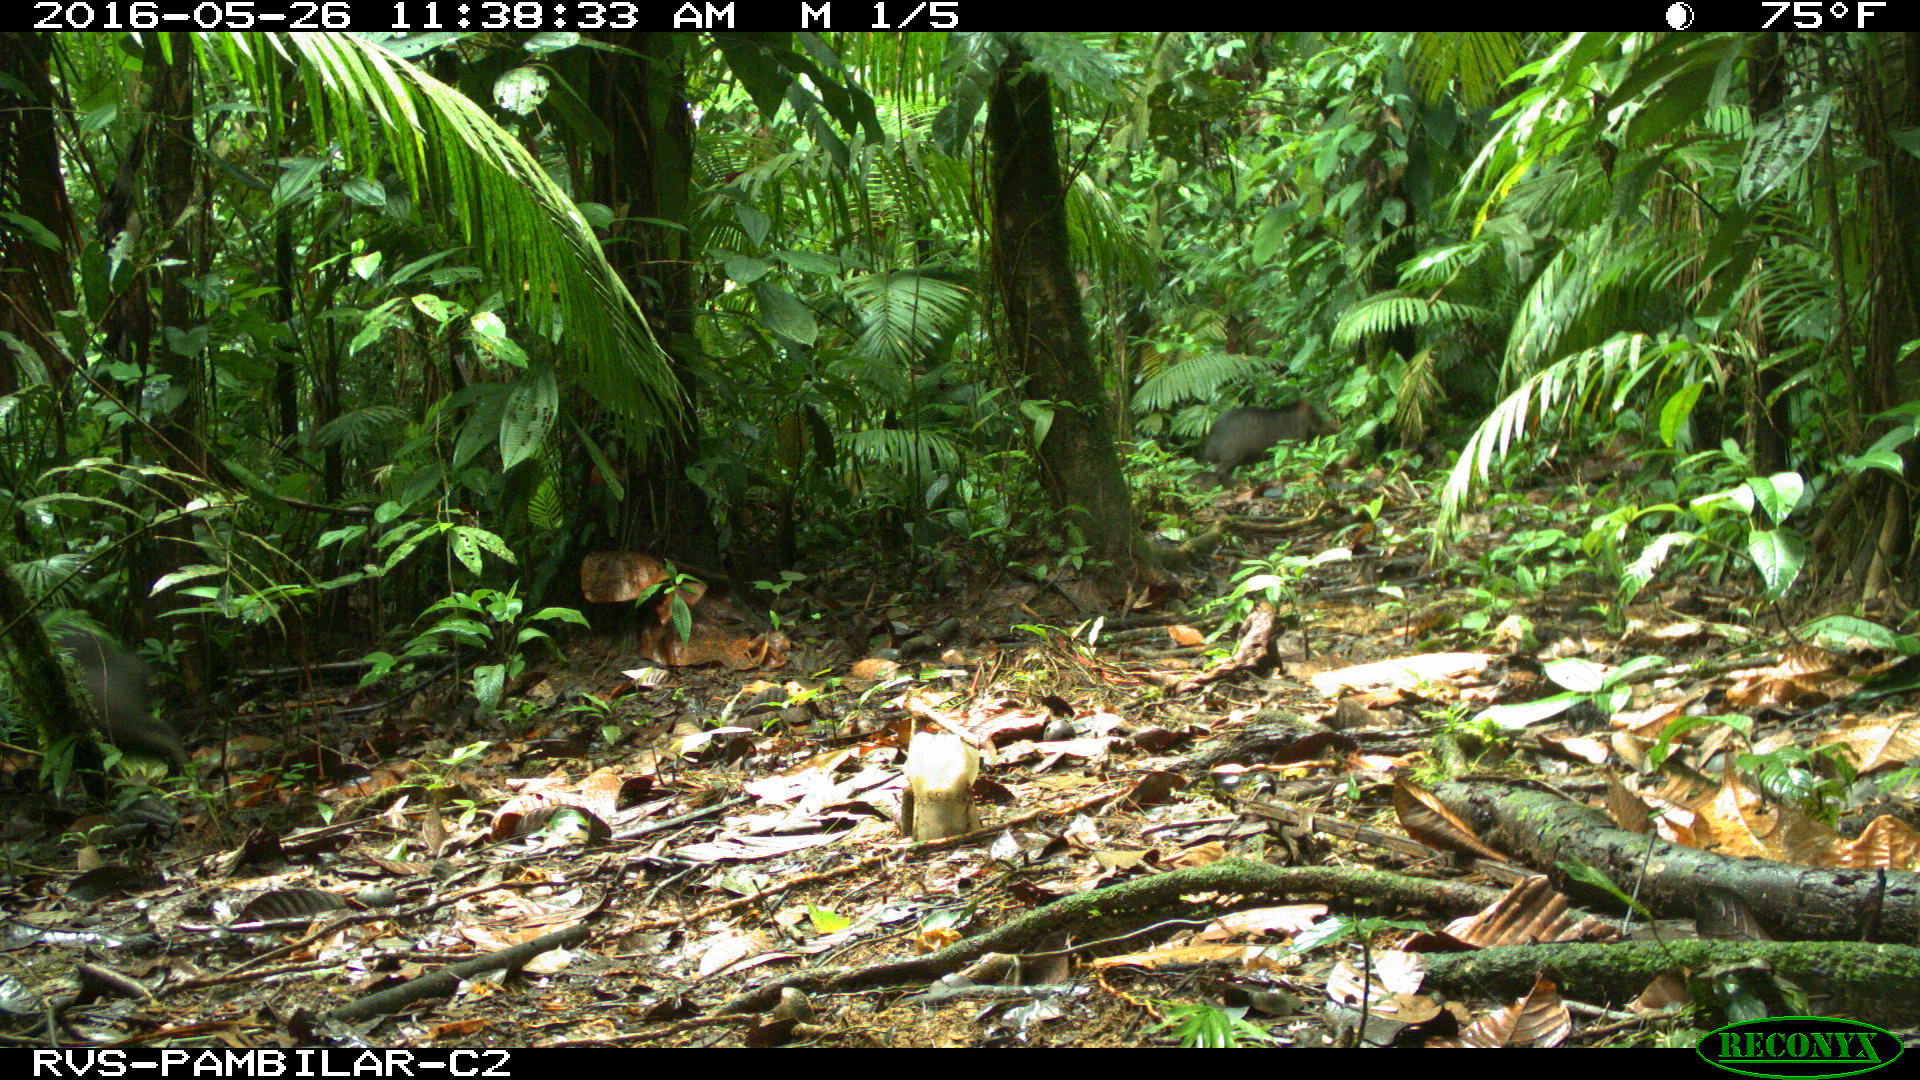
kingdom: Animalia
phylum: Chordata
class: Mammalia
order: Artiodactyla
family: Tayassuidae
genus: Tayassu
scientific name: Tayassu pecari
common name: White-lipped peccary
